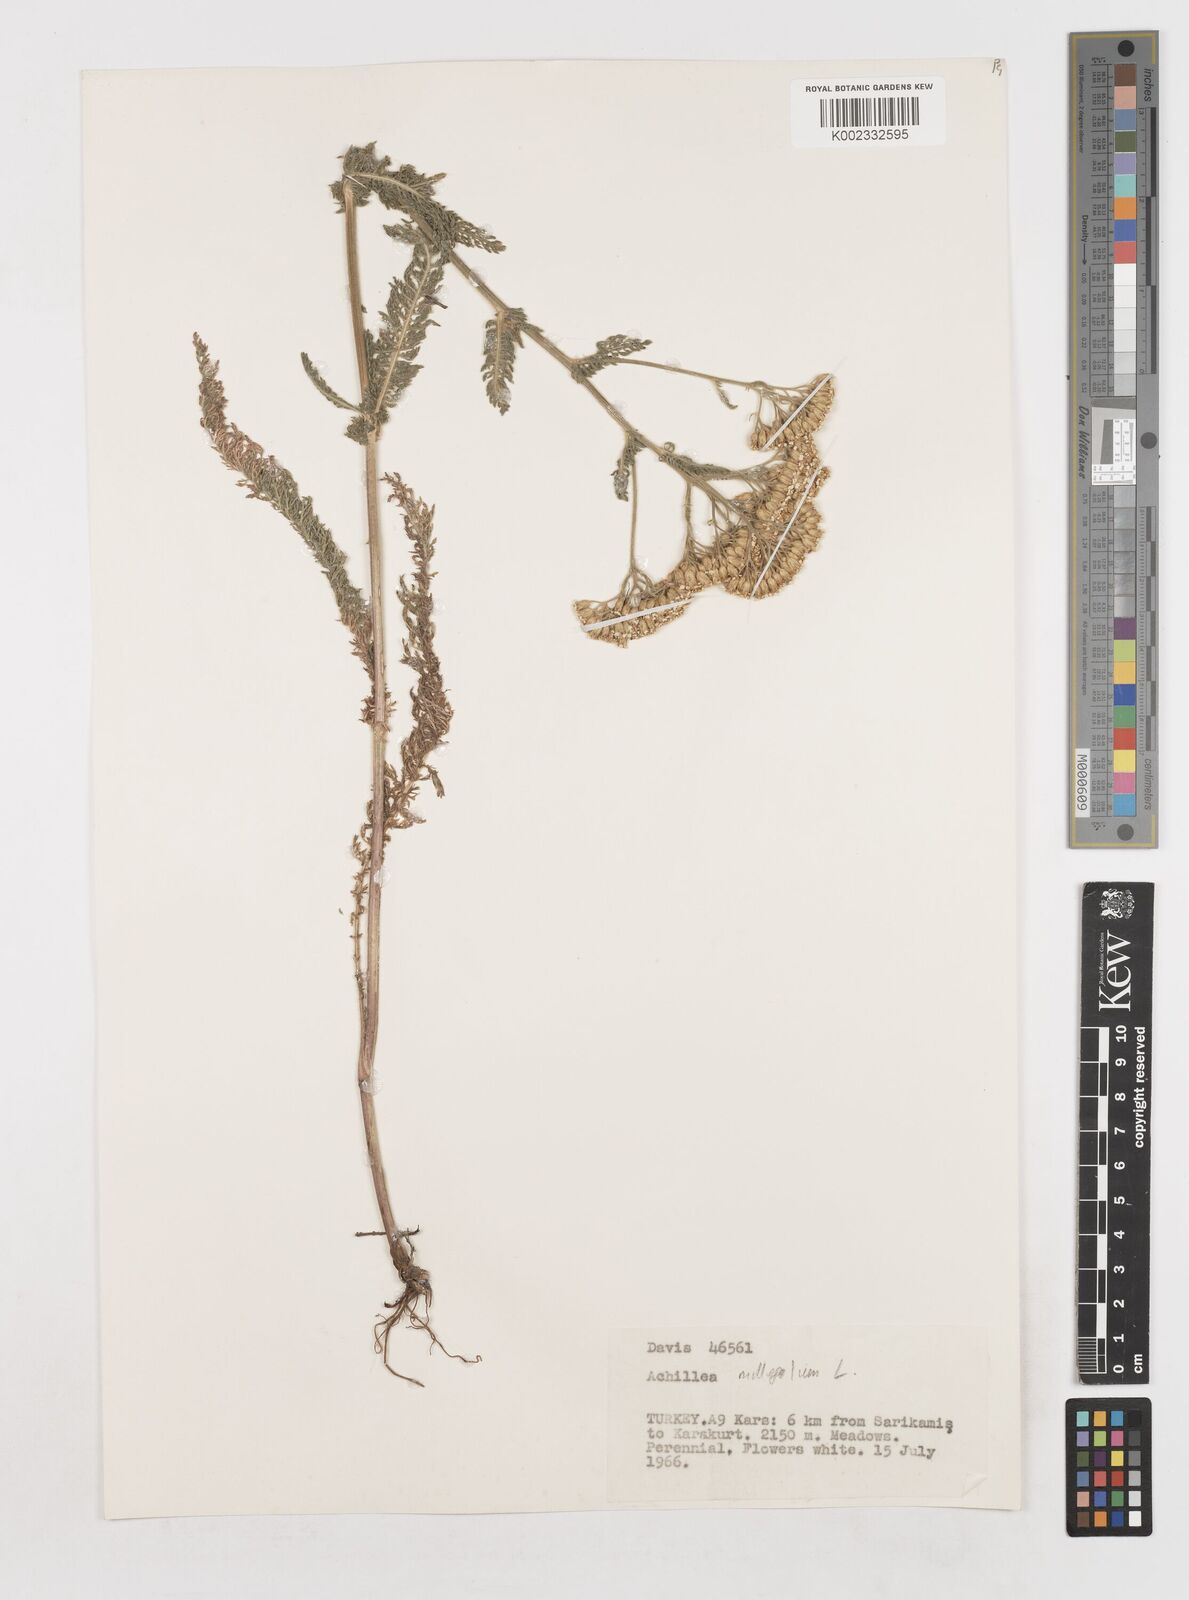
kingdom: Plantae
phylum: Tracheophyta
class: Magnoliopsida
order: Asterales
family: Asteraceae
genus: Achillea
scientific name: Achillea millefolium
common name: Yarrow
